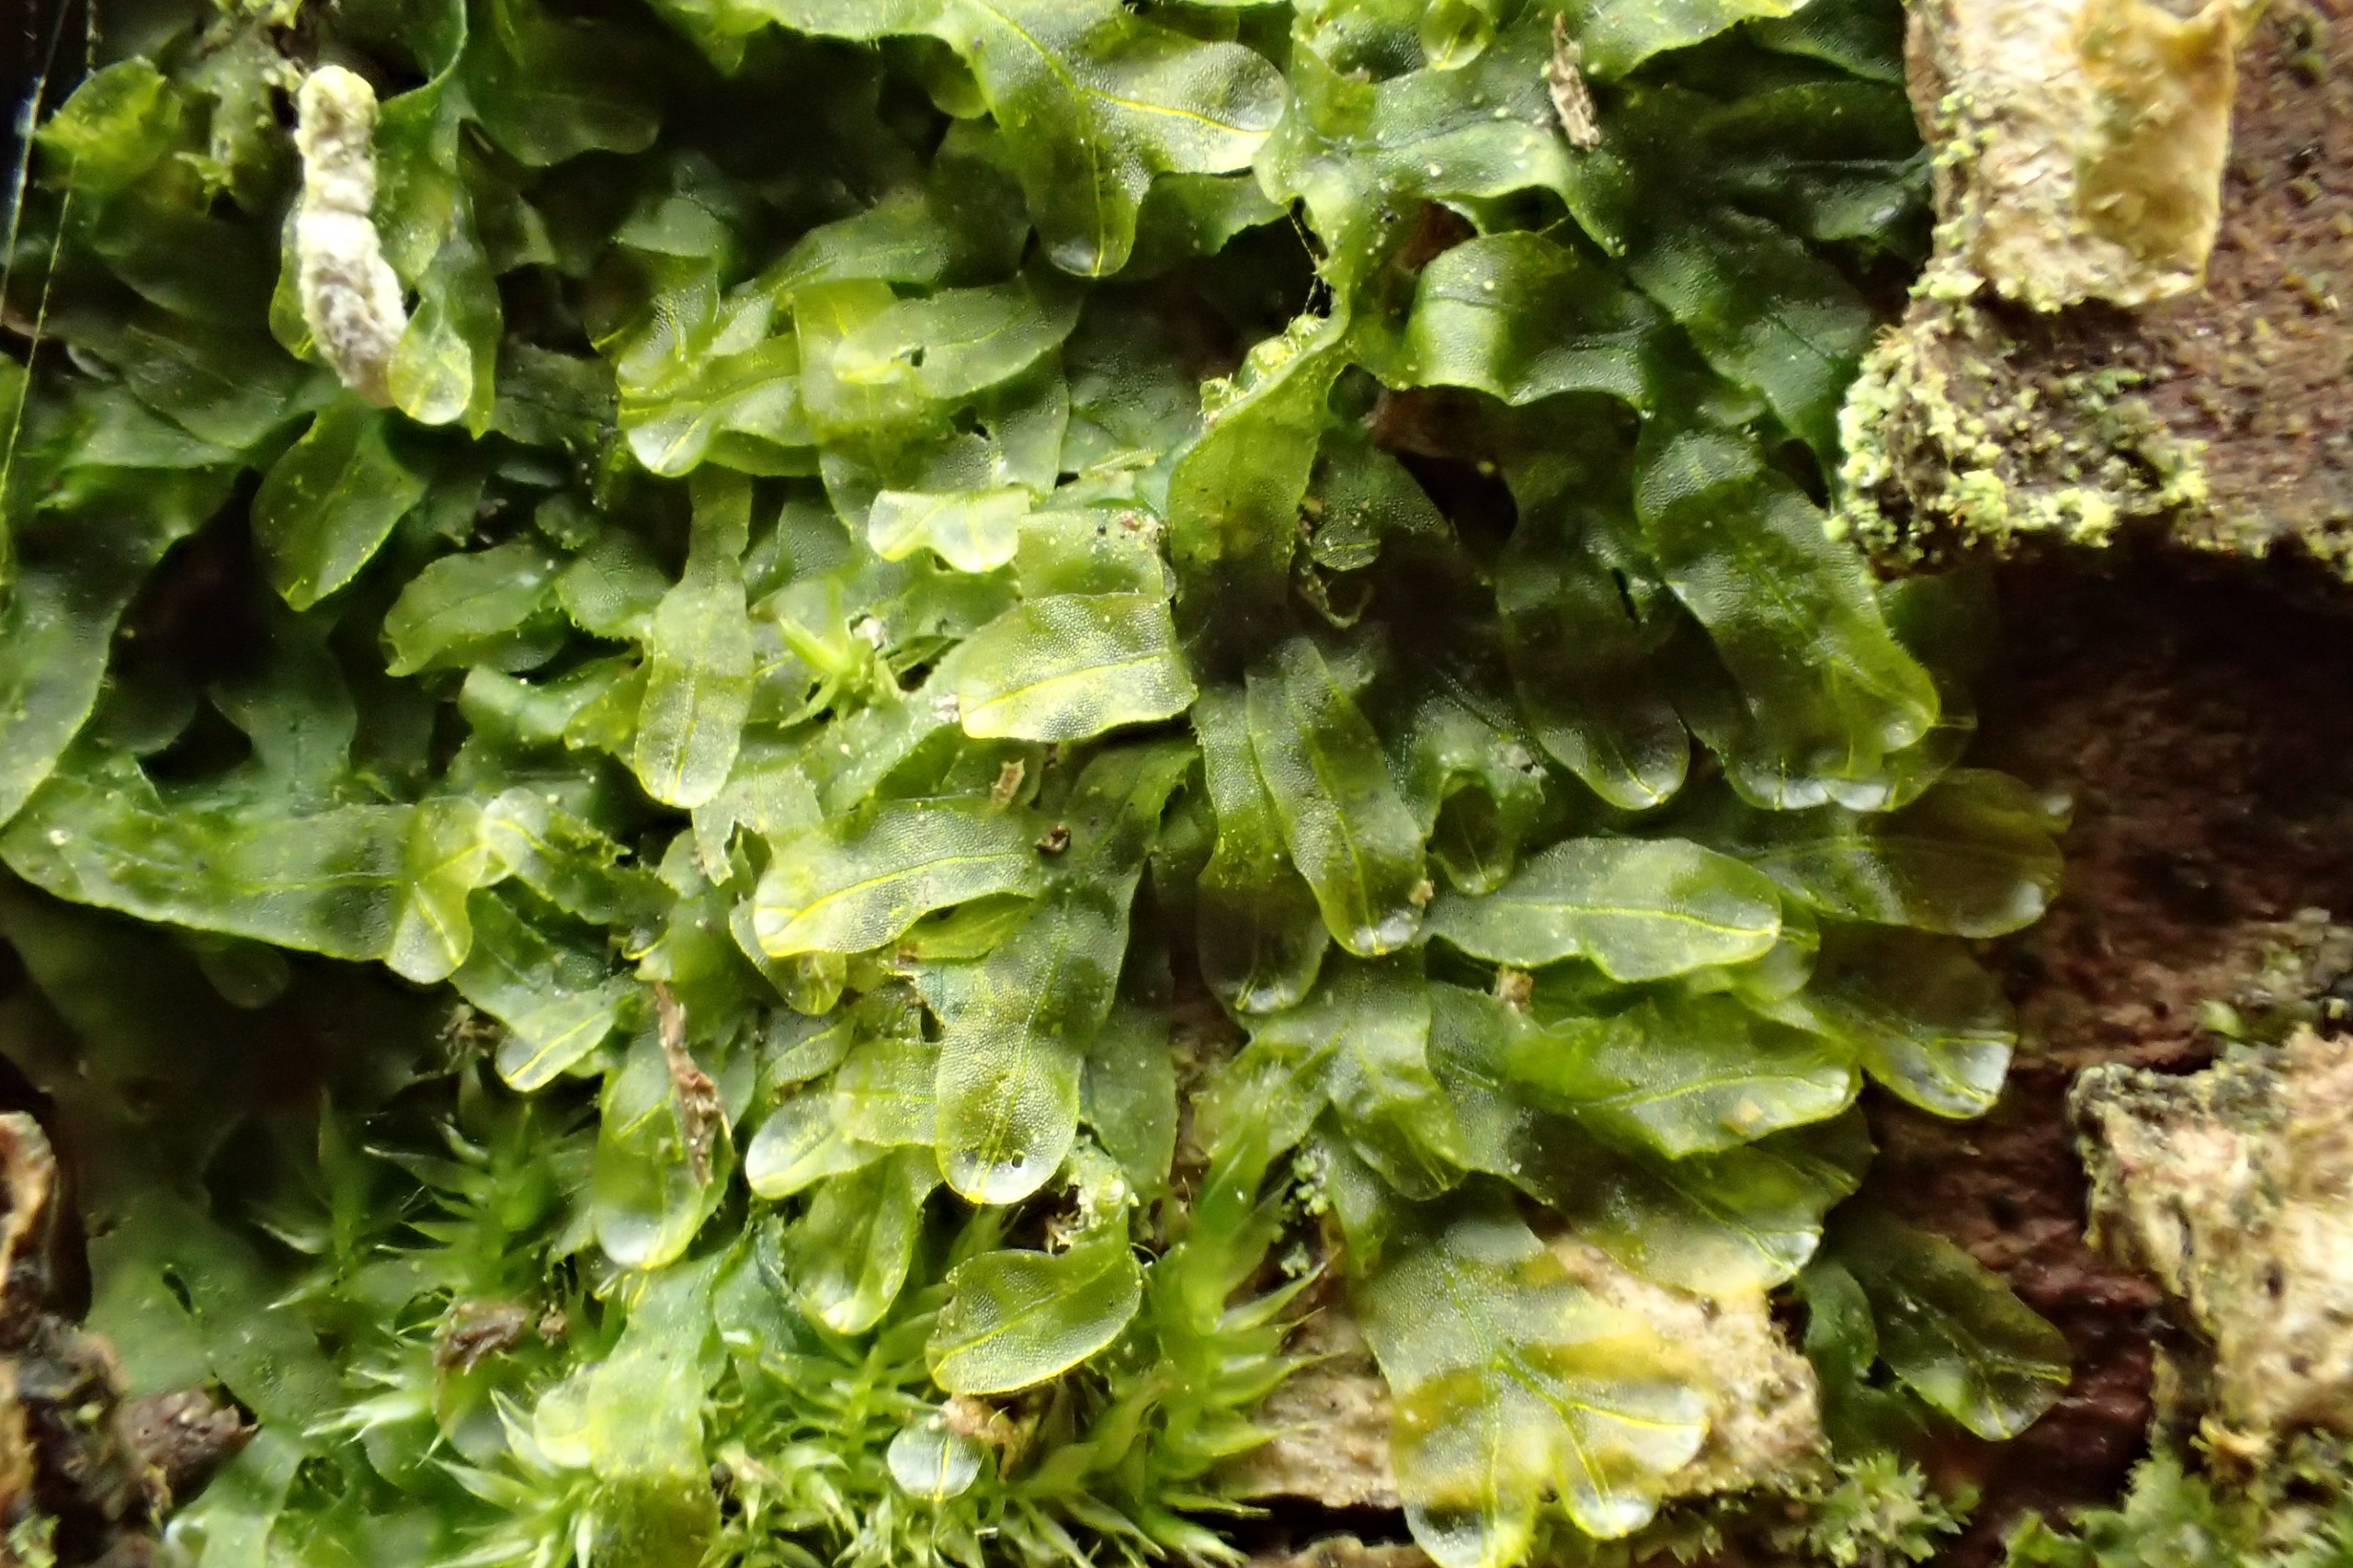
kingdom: Plantae
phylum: Marchantiophyta
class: Jungermanniopsida
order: Metzgeriales
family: Metzgeriaceae
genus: Metzgeria
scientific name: Metzgeria furcata
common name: Almindelig gaffelløv
